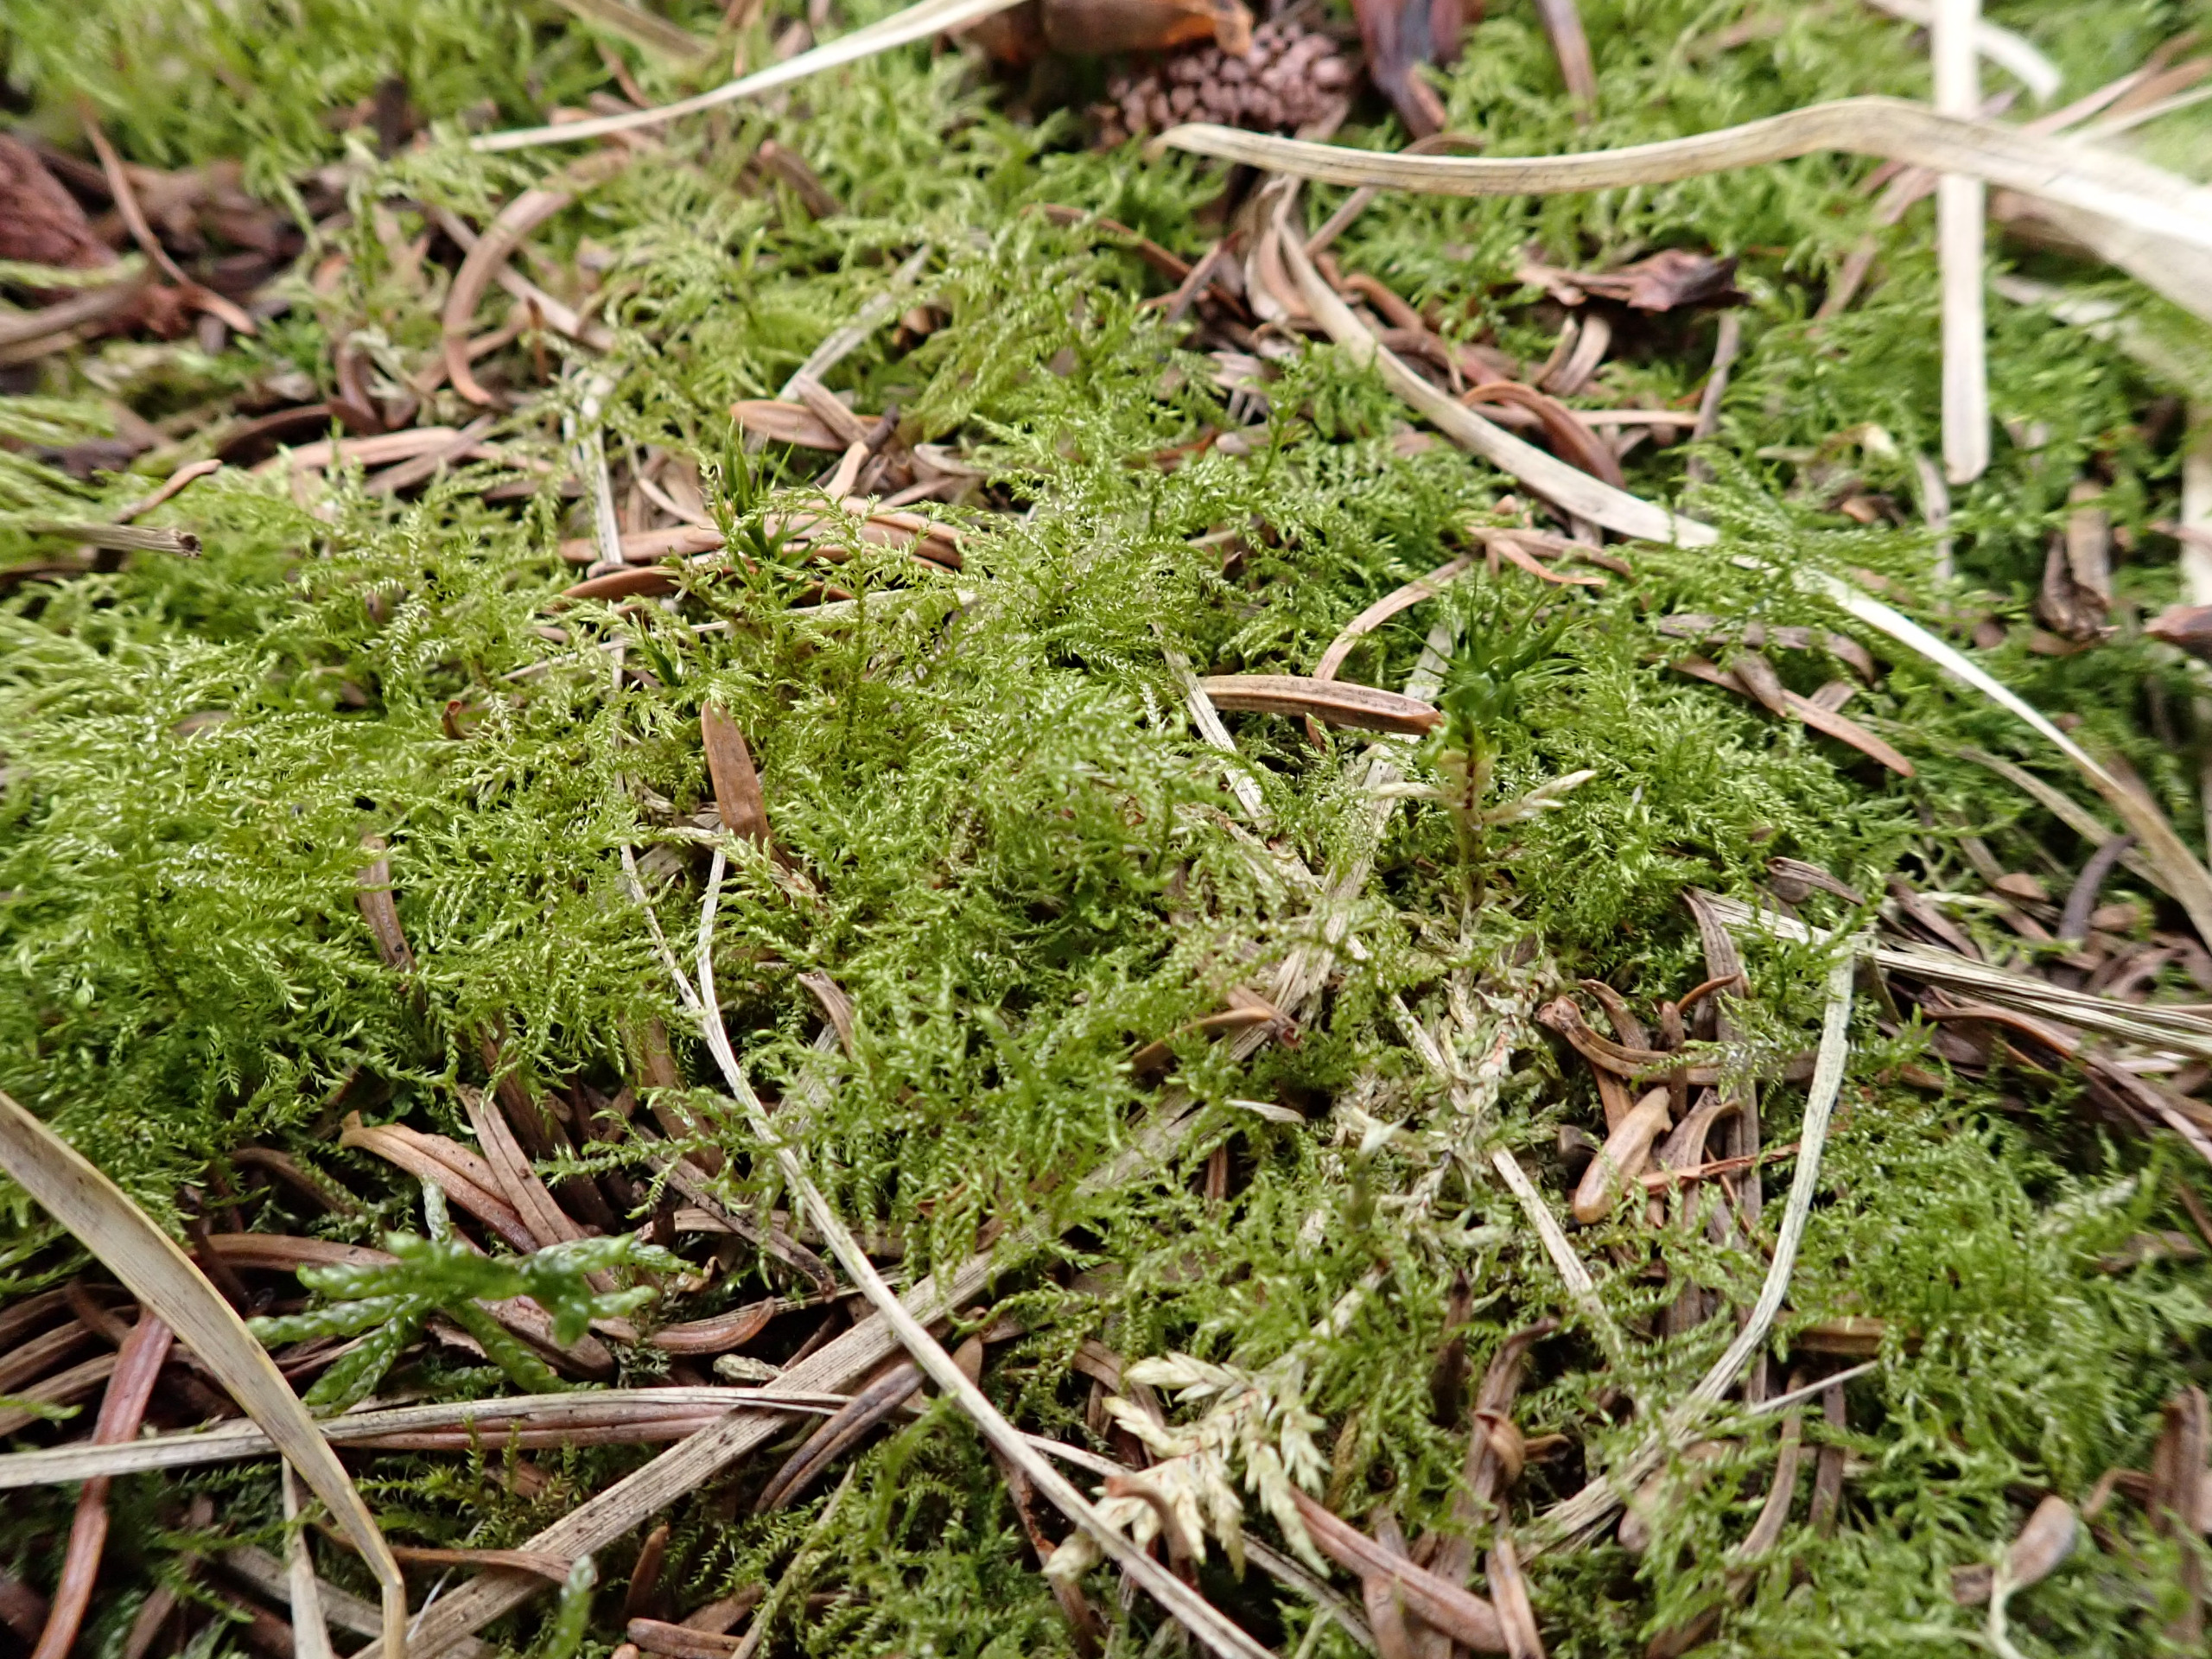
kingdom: Plantae
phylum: Bryophyta
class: Bryopsida
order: Hypnales
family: Brachytheciaceae
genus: Kindbergia
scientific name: Kindbergia praelonga
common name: Forskelligbladet vortetand
